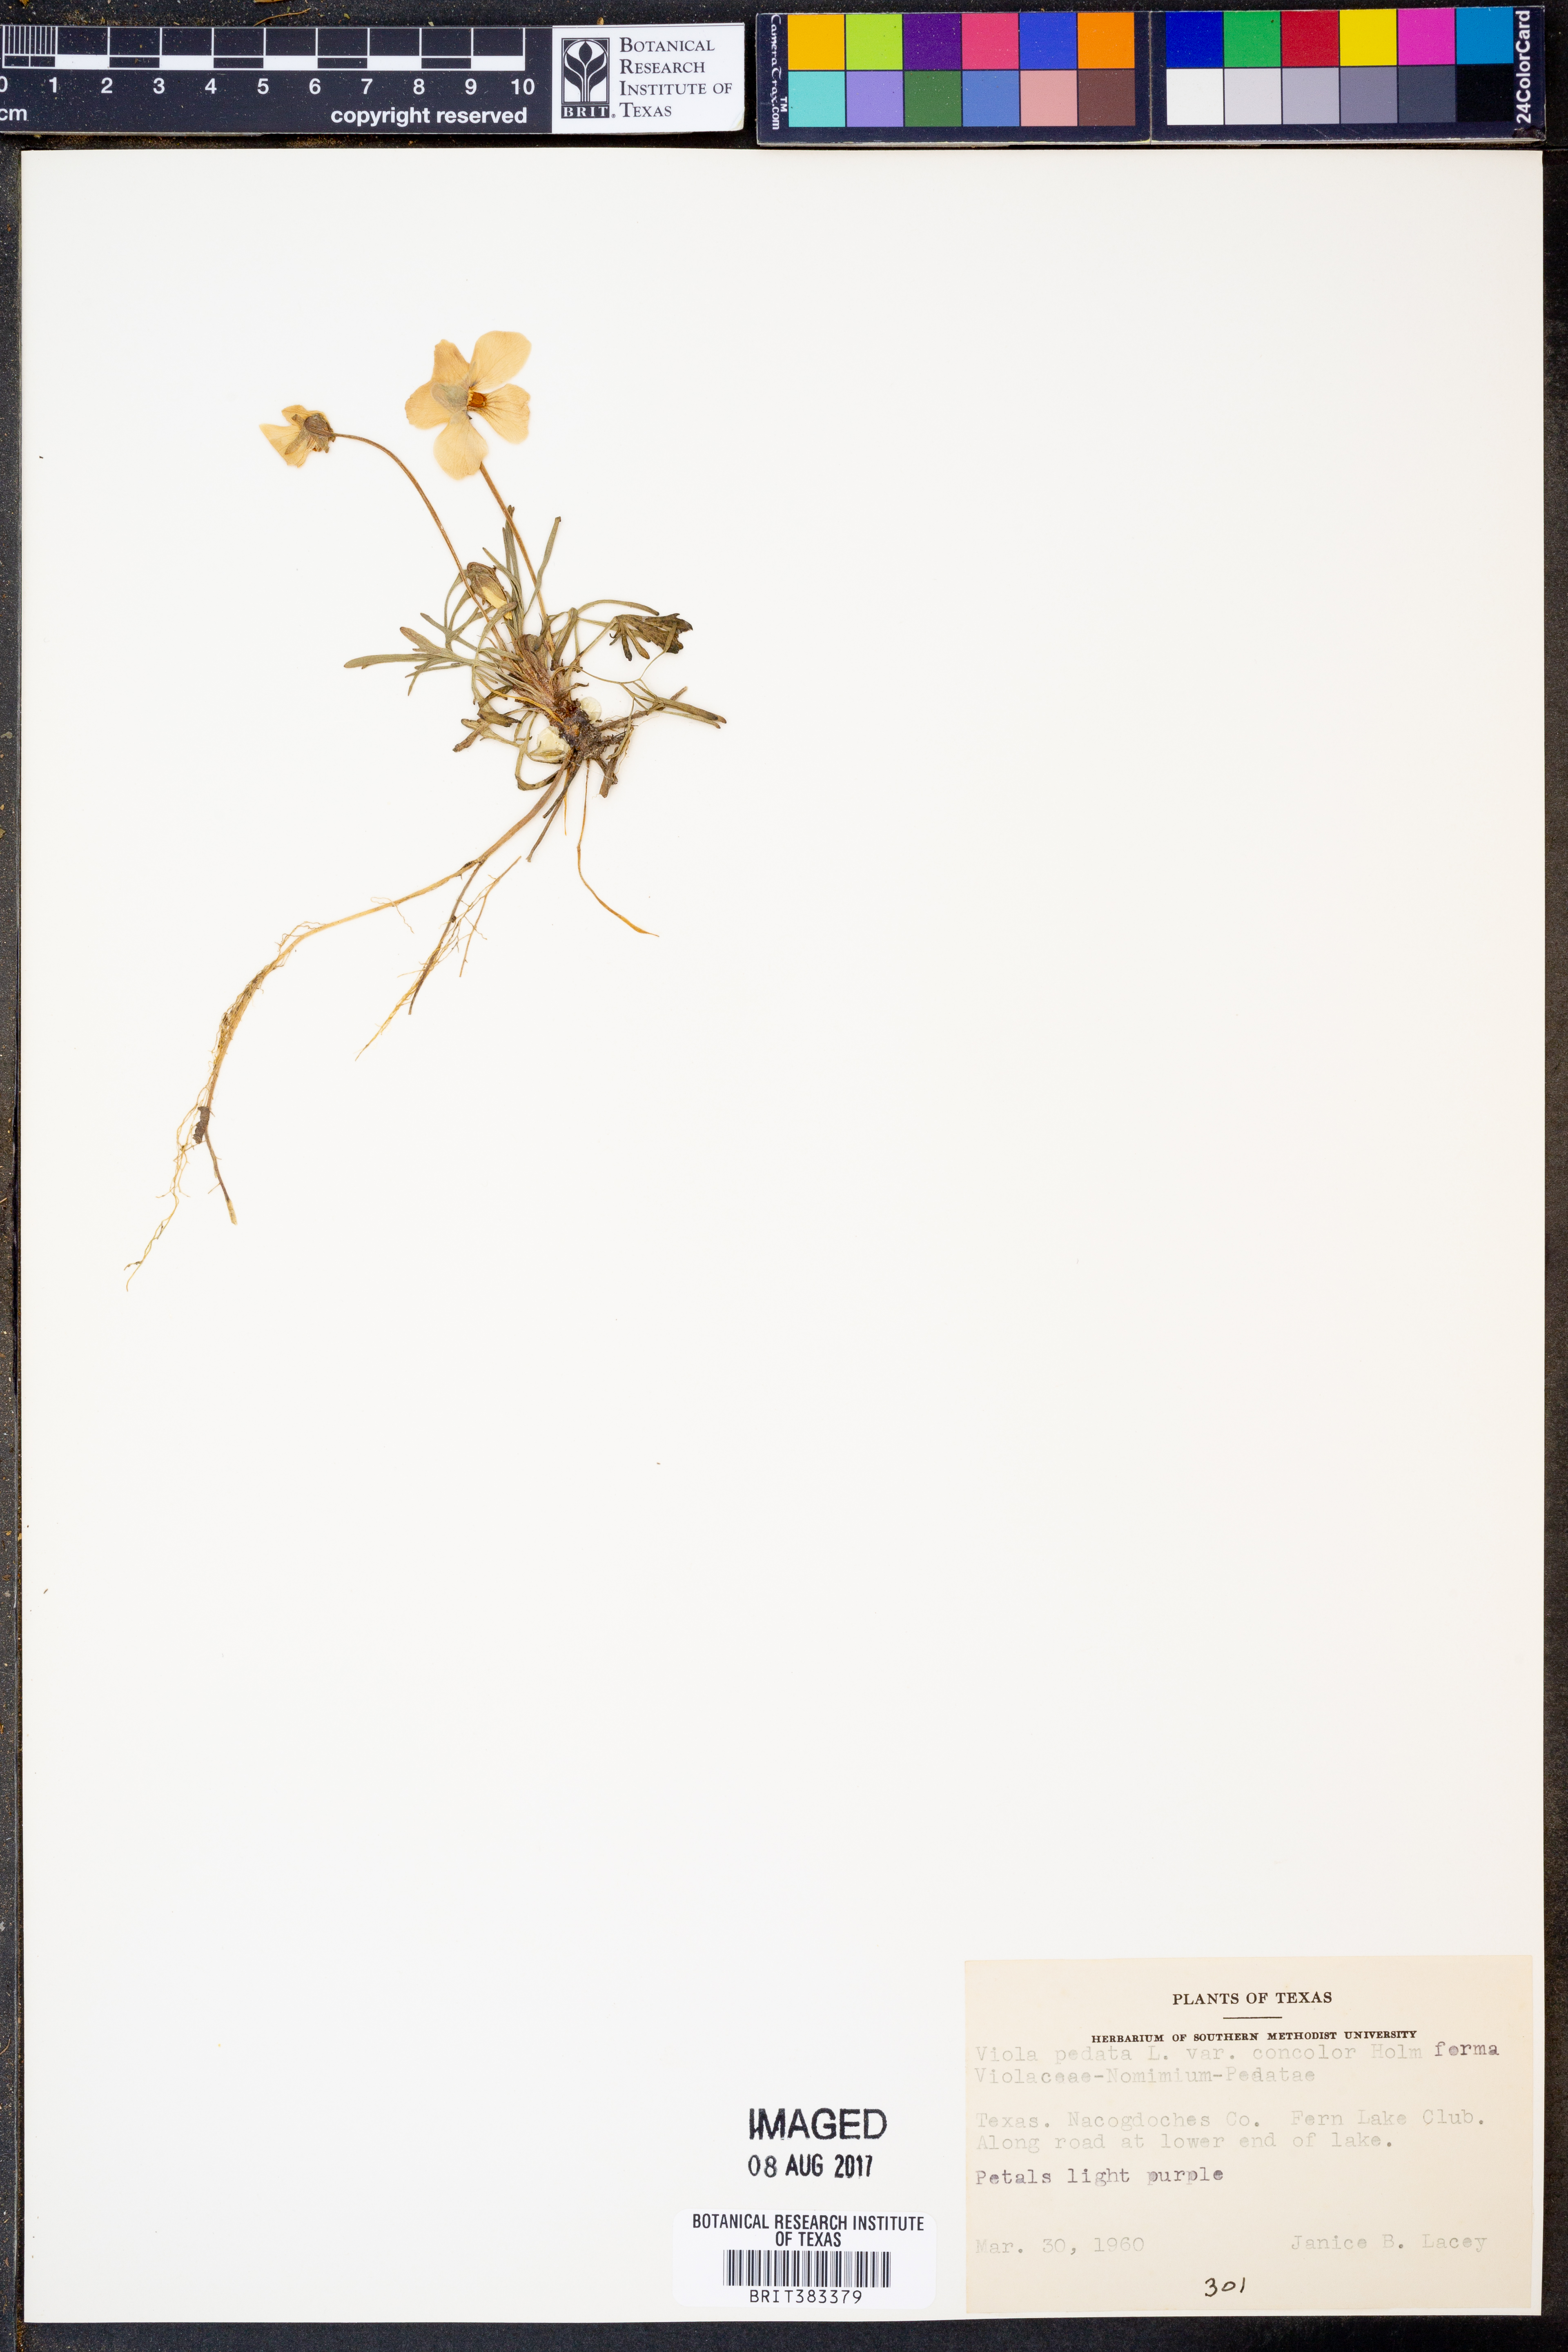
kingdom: Plantae
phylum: Tracheophyta
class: Magnoliopsida
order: Malpighiales
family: Violaceae
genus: Viola
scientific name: Viola pedata
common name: Pansy violet
